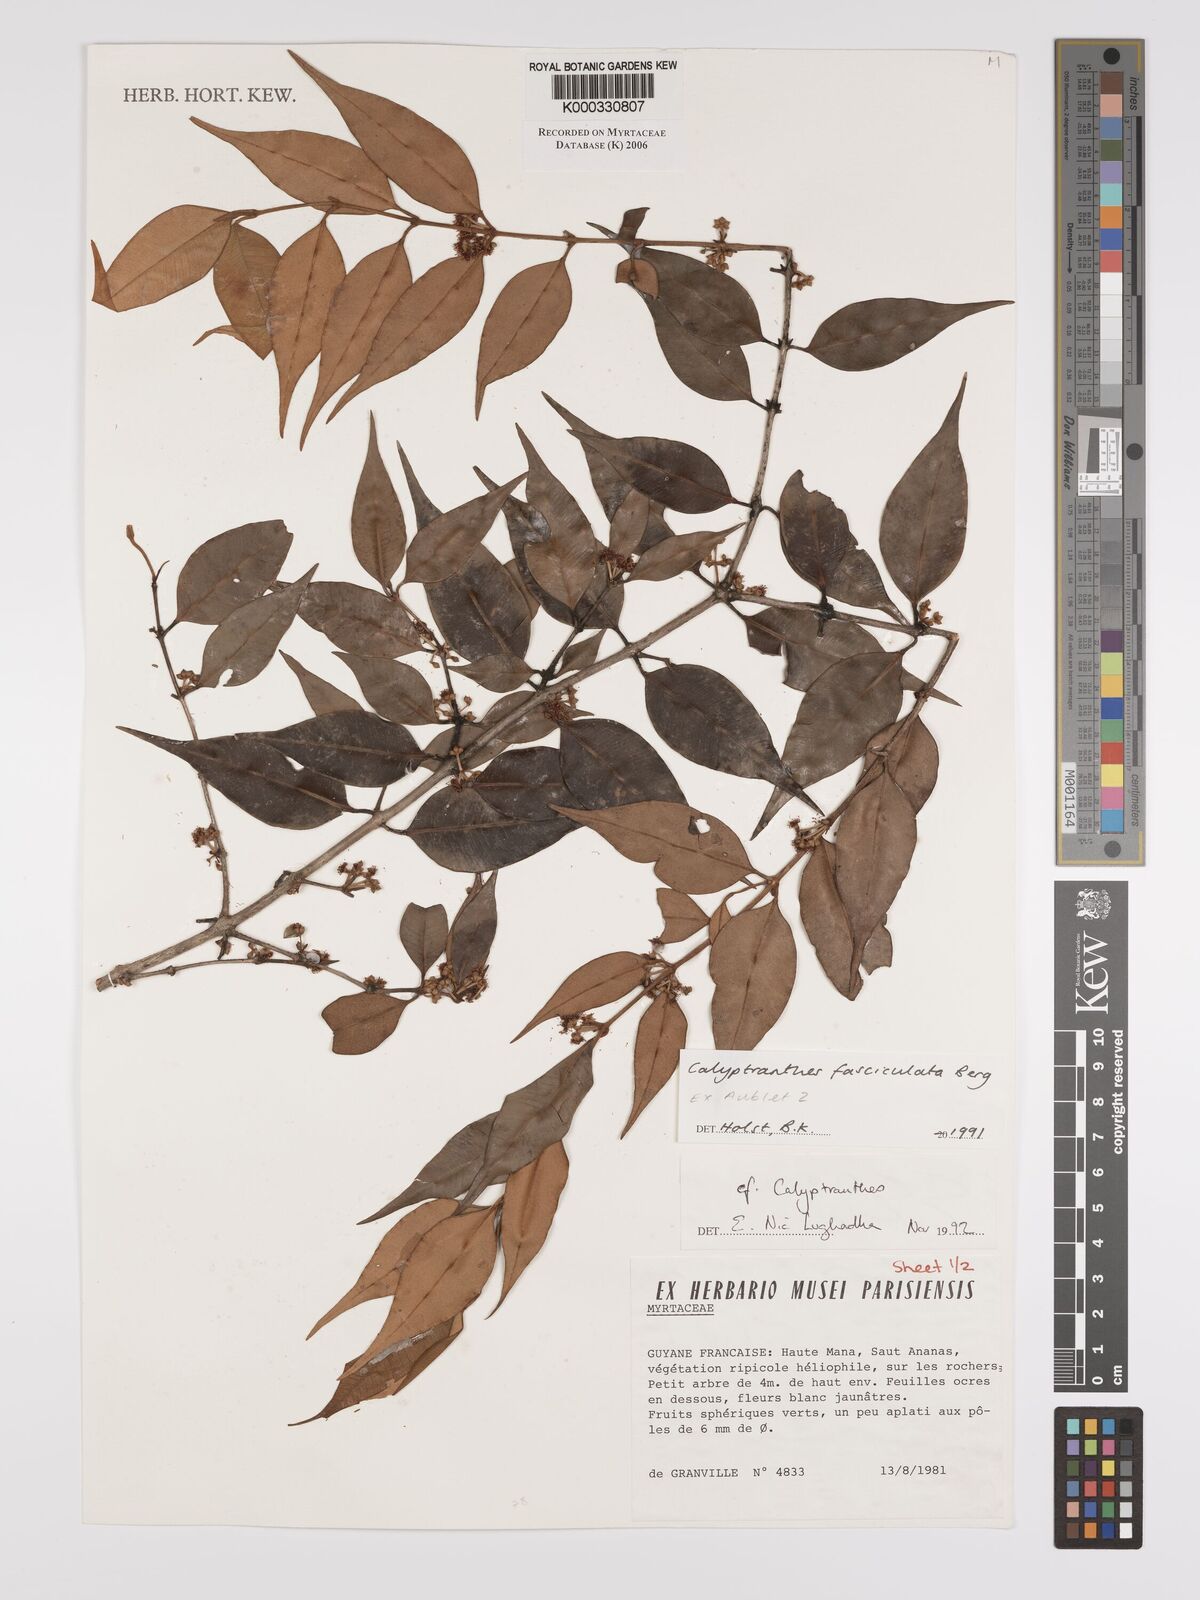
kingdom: Plantae
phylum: Tracheophyta
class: Magnoliopsida
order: Myrtales
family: Myrtaceae
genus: Myrcia
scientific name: Myrcia fasciculata
